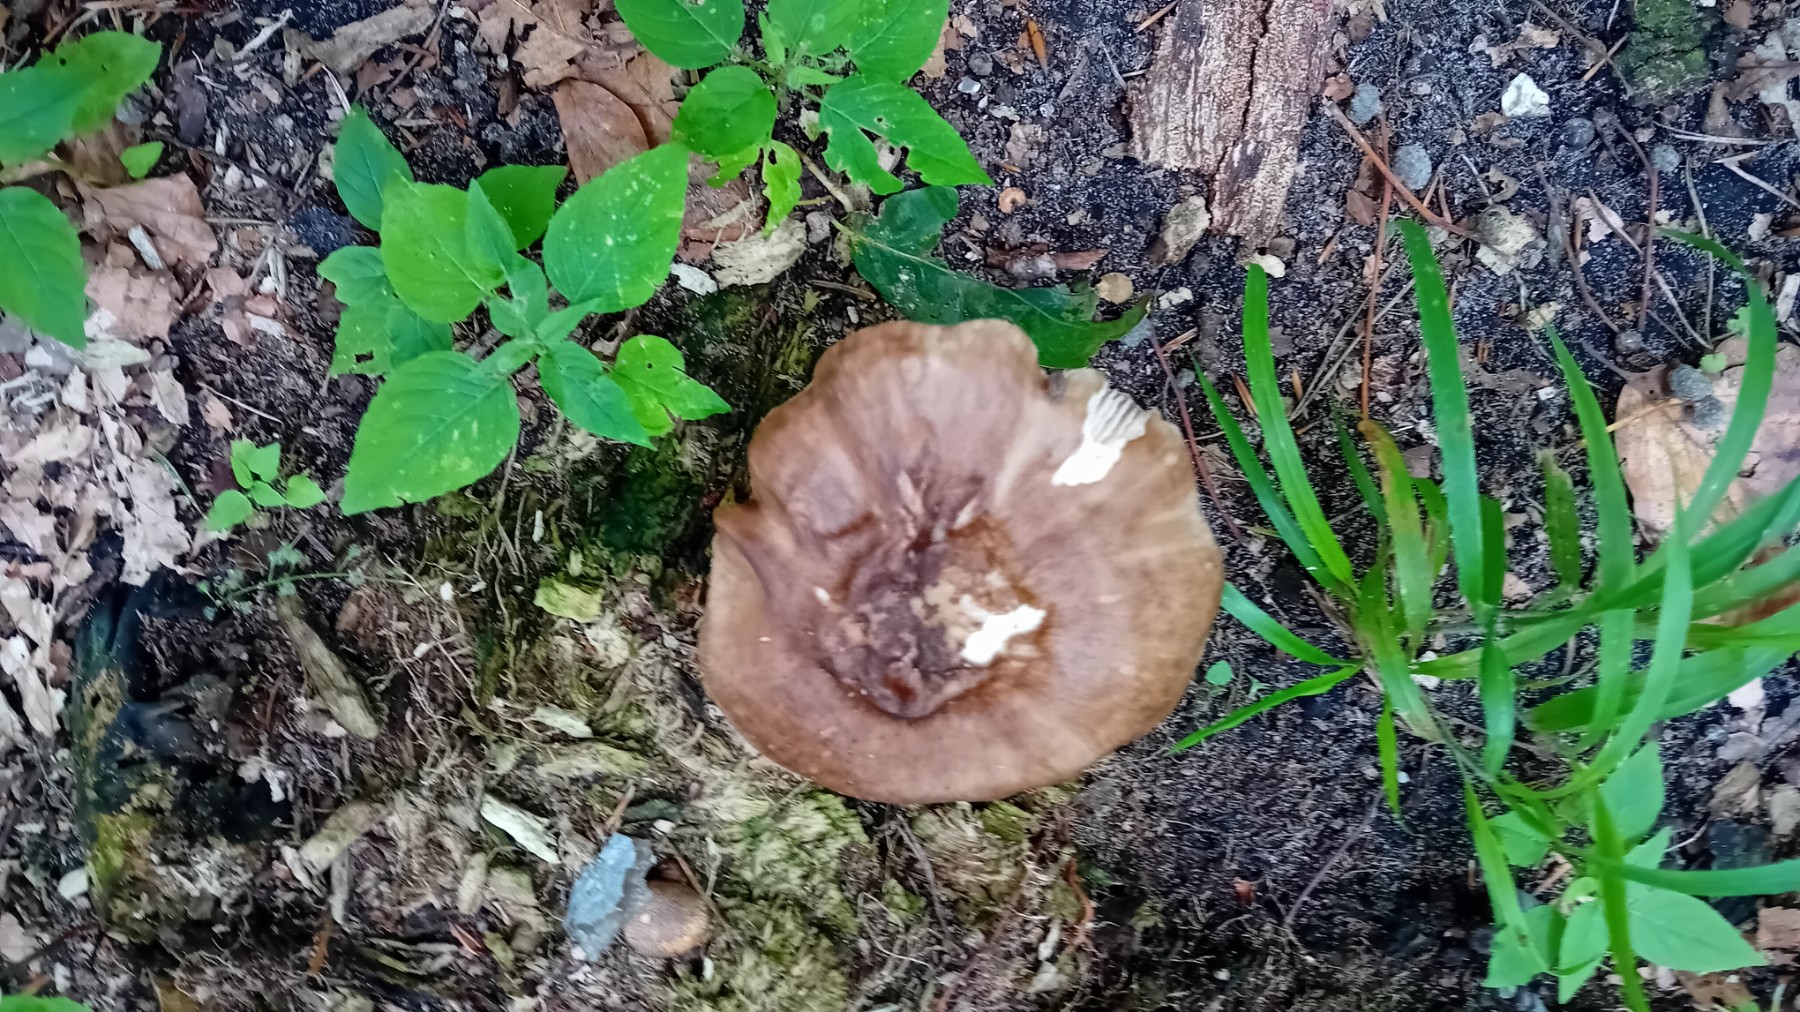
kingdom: Fungi
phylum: Basidiomycota
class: Agaricomycetes
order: Agaricales
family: Pluteaceae
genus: Pluteus
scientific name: Pluteus cervinus
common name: sodfarvet skærmhat
